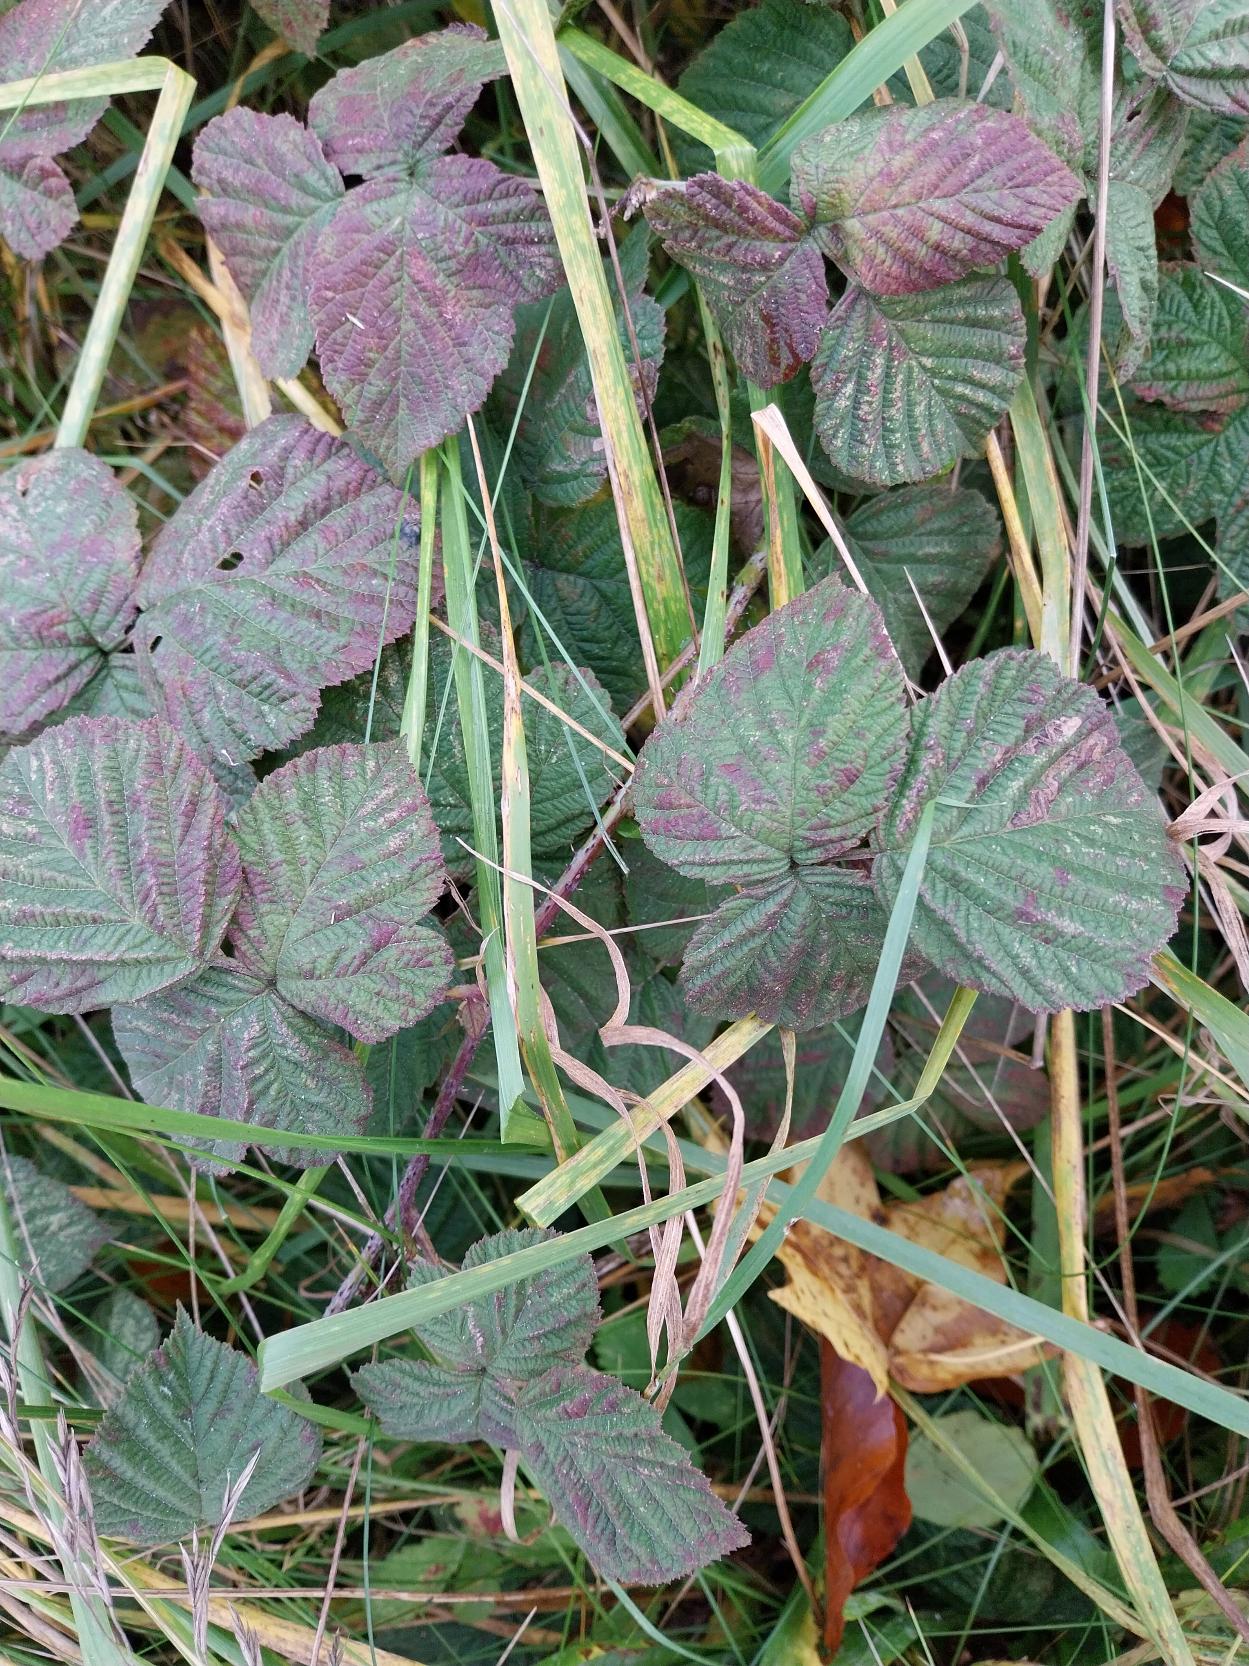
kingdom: Plantae
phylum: Tracheophyta
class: Magnoliopsida
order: Rosales
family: Rosaceae
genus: Rubus
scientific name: Rubus caesius
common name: Korbær
